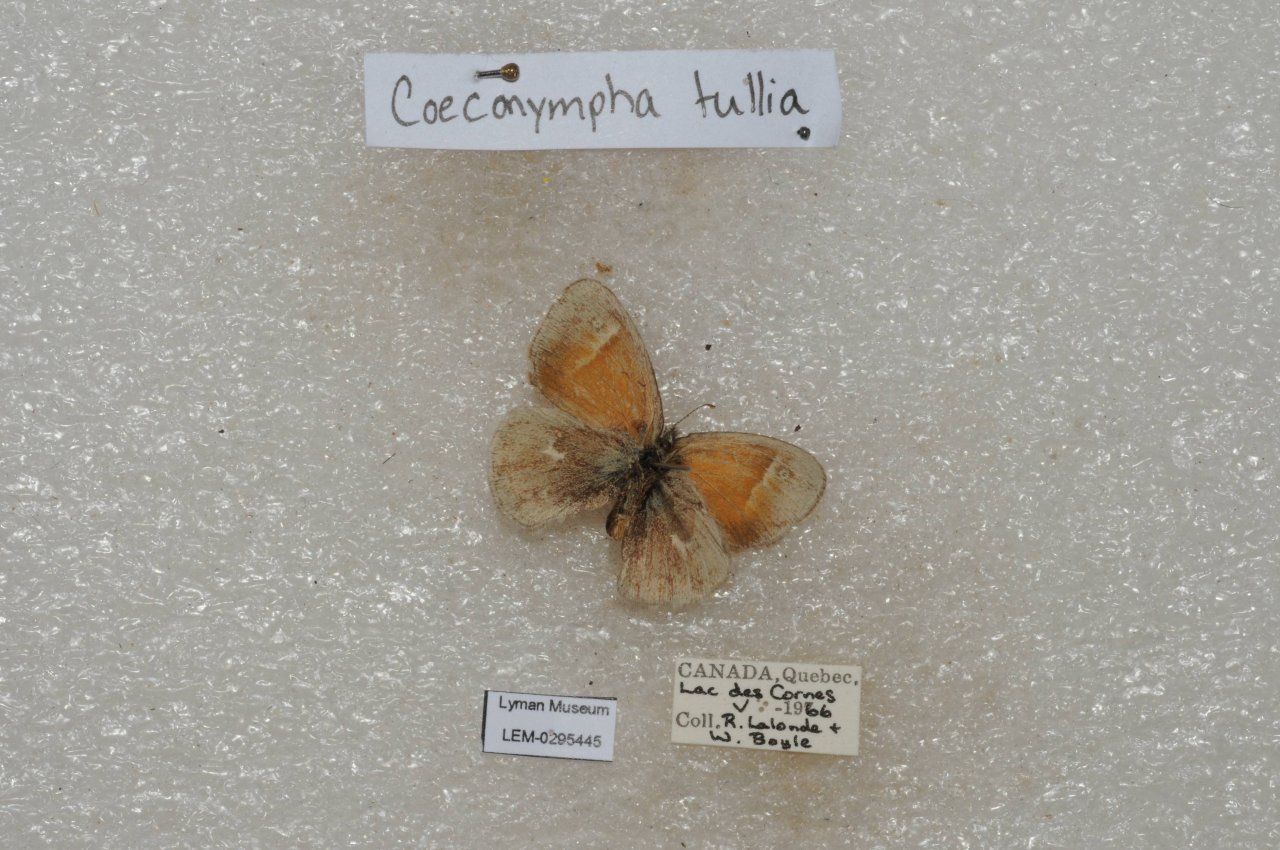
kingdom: Animalia
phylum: Arthropoda
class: Insecta
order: Lepidoptera
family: Nymphalidae
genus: Coenonympha
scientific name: Coenonympha tullia
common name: Large Heath
